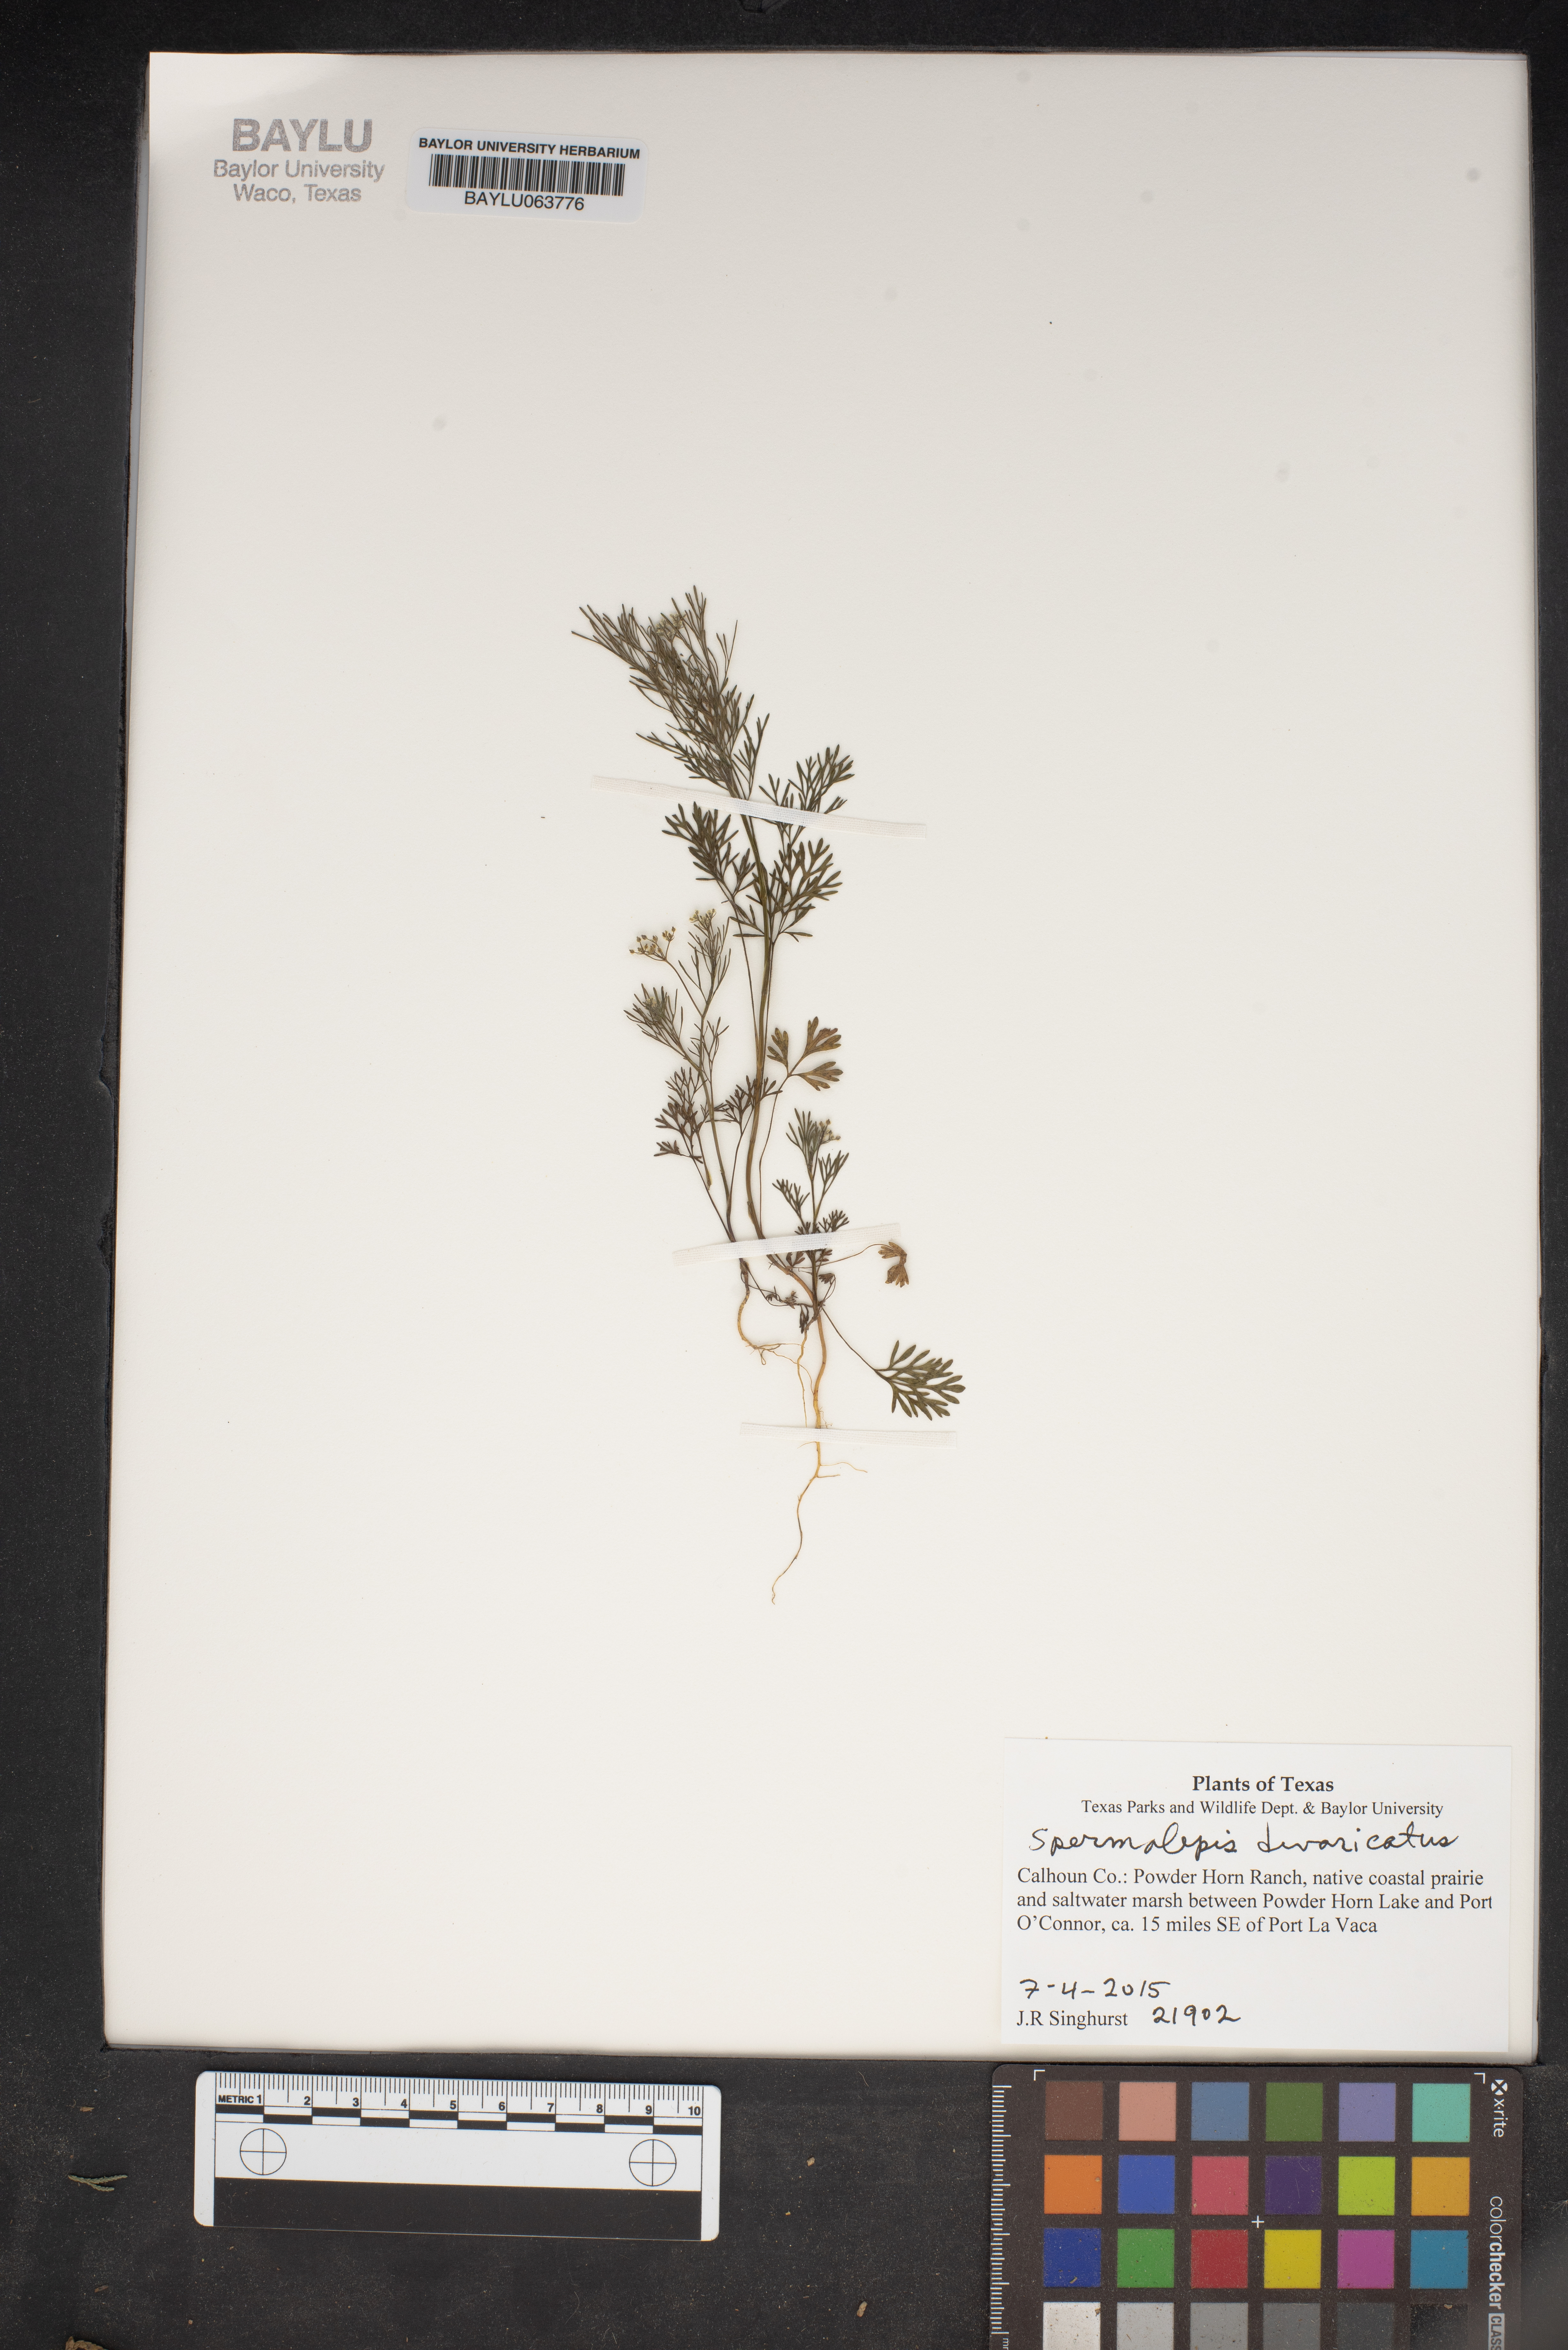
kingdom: Plantae
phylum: Tracheophyta
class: Magnoliopsida
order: Apiales
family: Apiaceae
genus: Spermolepis
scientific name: Spermolepis divaricata
